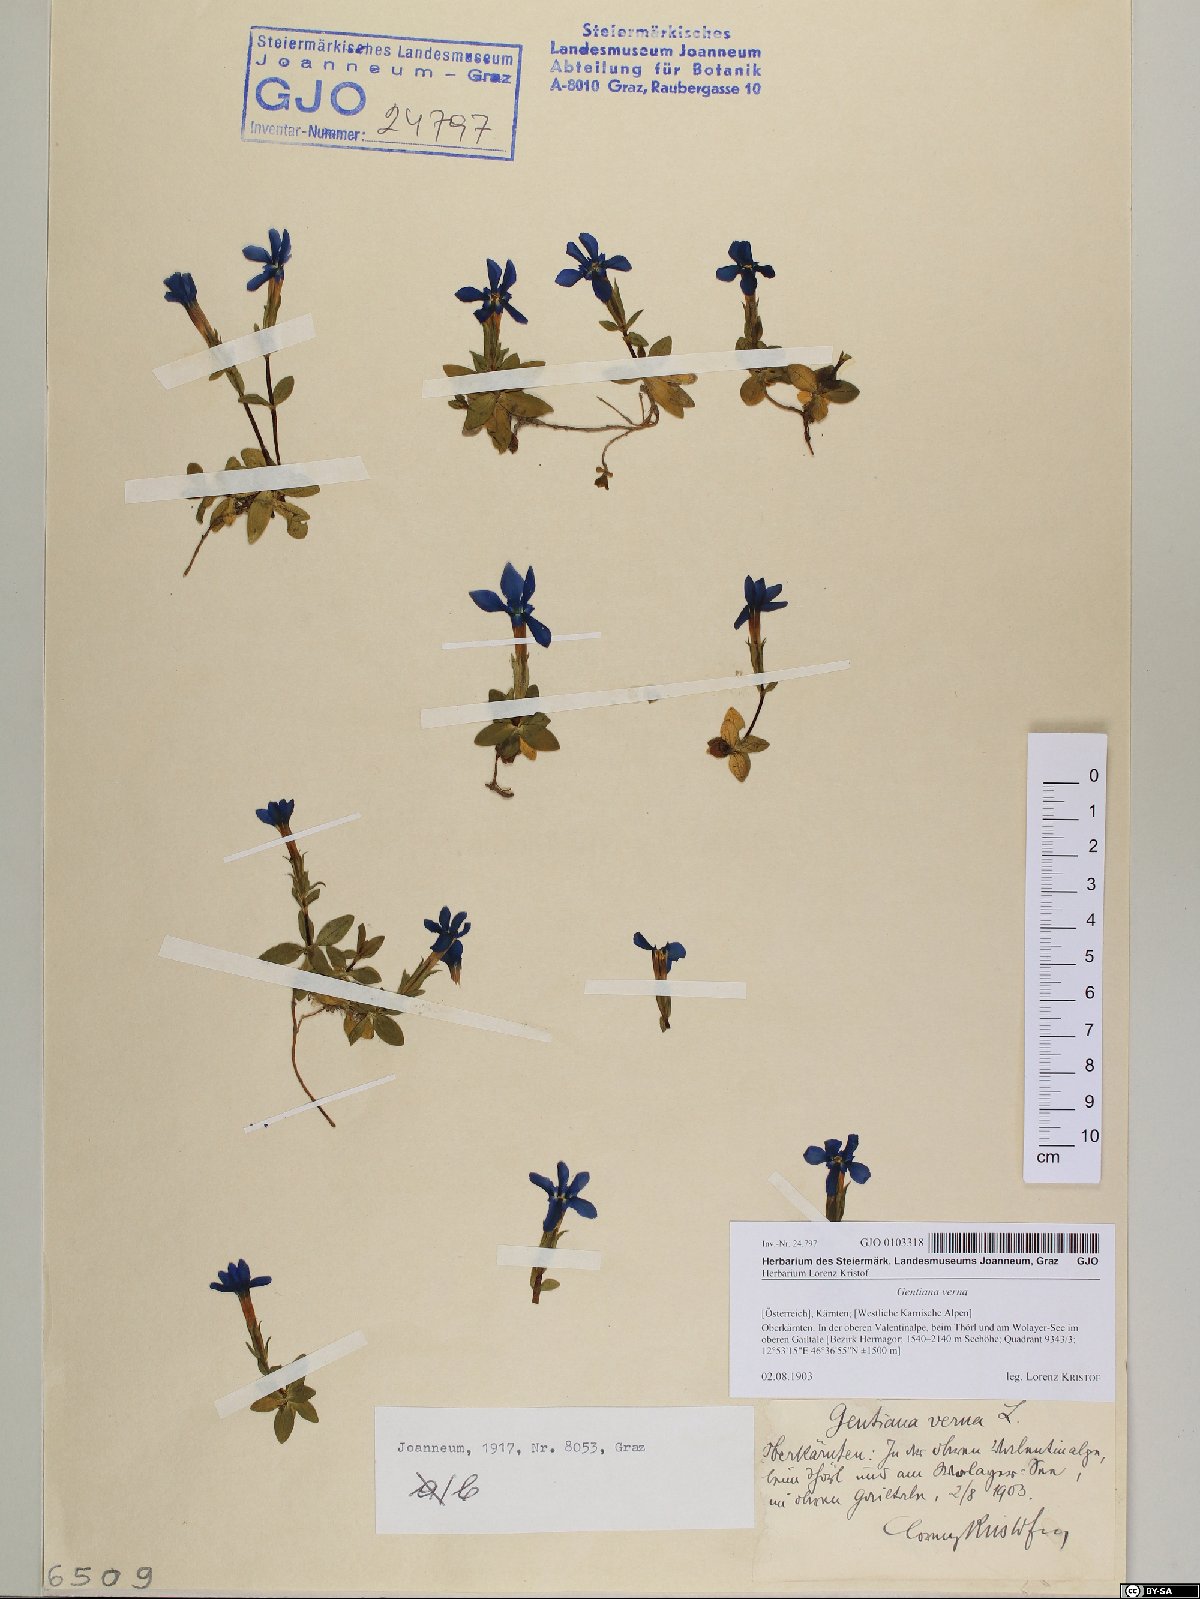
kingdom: Plantae
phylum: Tracheophyta
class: Magnoliopsida
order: Gentianales
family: Gentianaceae
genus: Gentiana
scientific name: Gentiana verna
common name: Spring gentian
